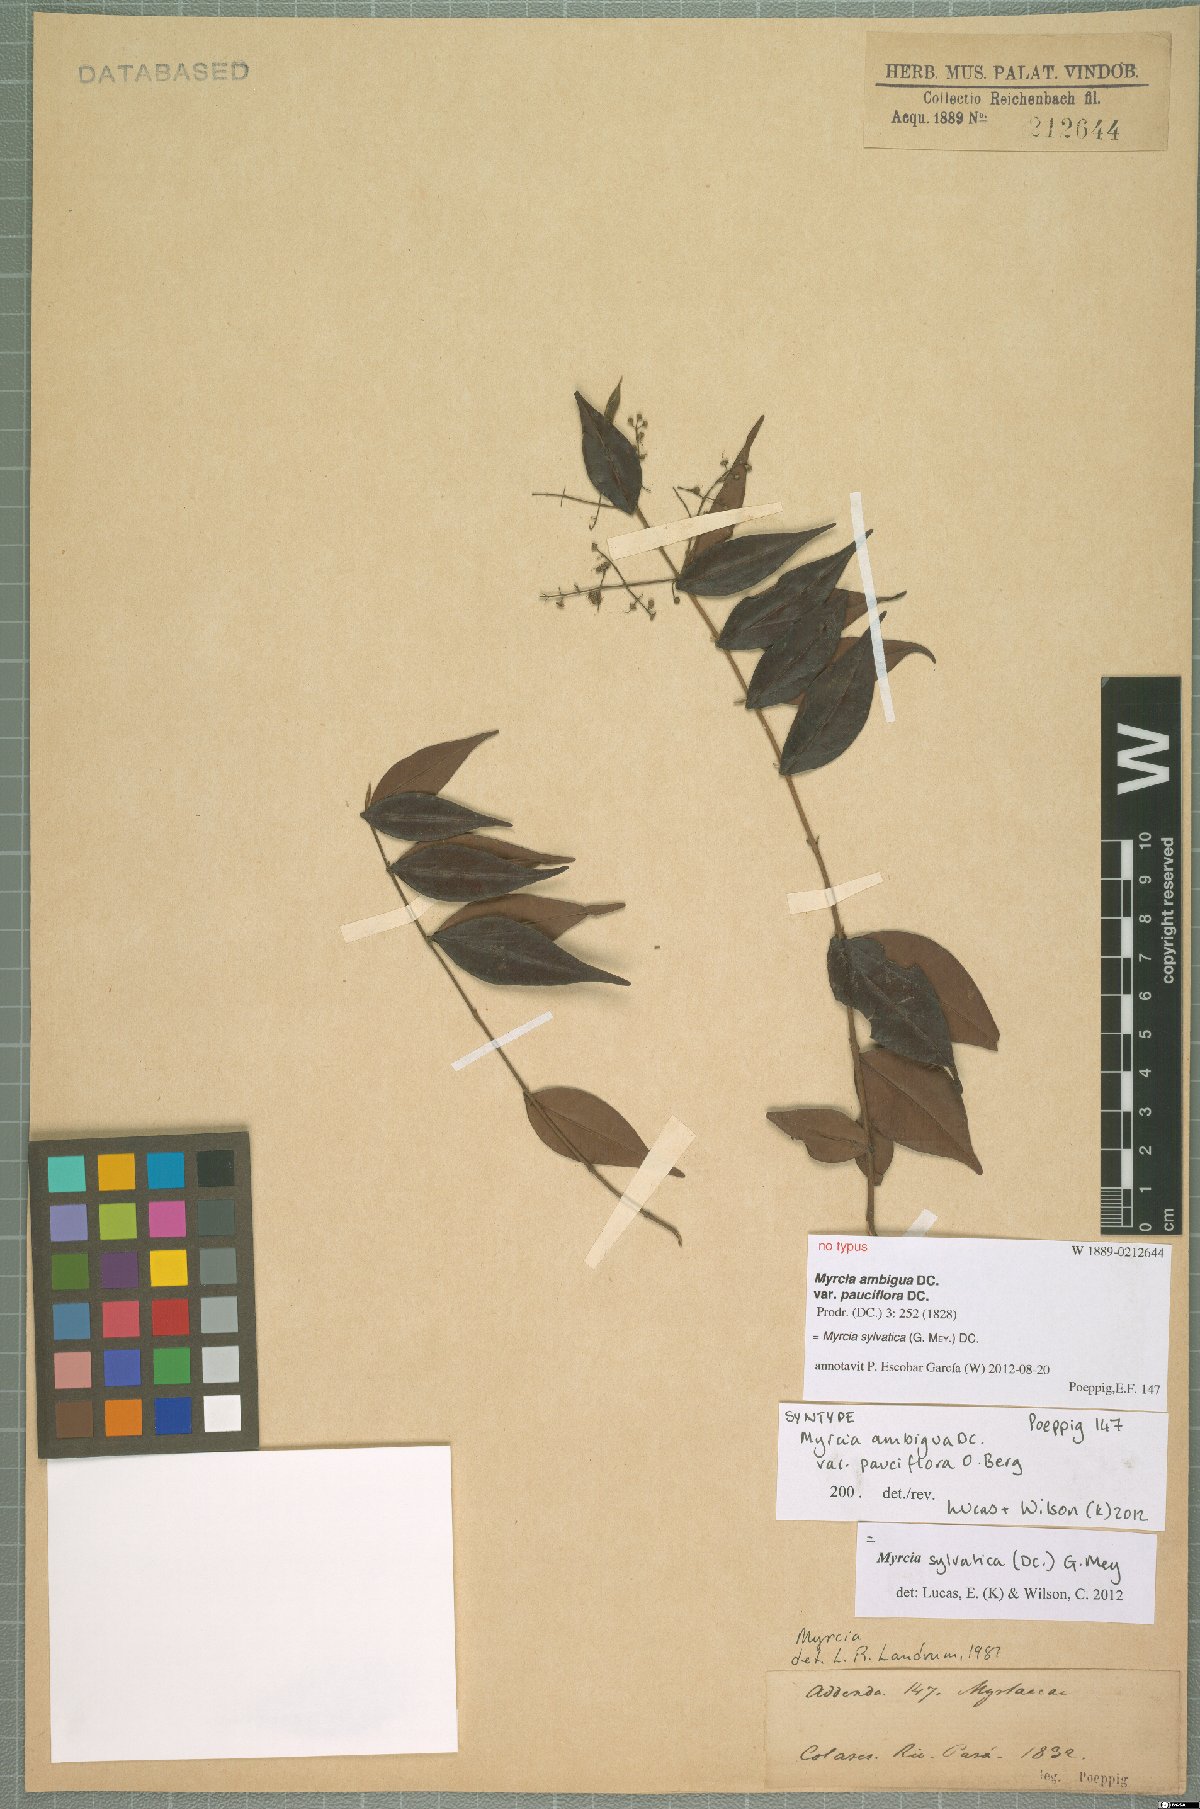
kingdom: Plantae
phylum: Tracheophyta
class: Magnoliopsida
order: Myrtales
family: Myrtaceae
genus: Myrcia
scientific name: Myrcia sylvatica
